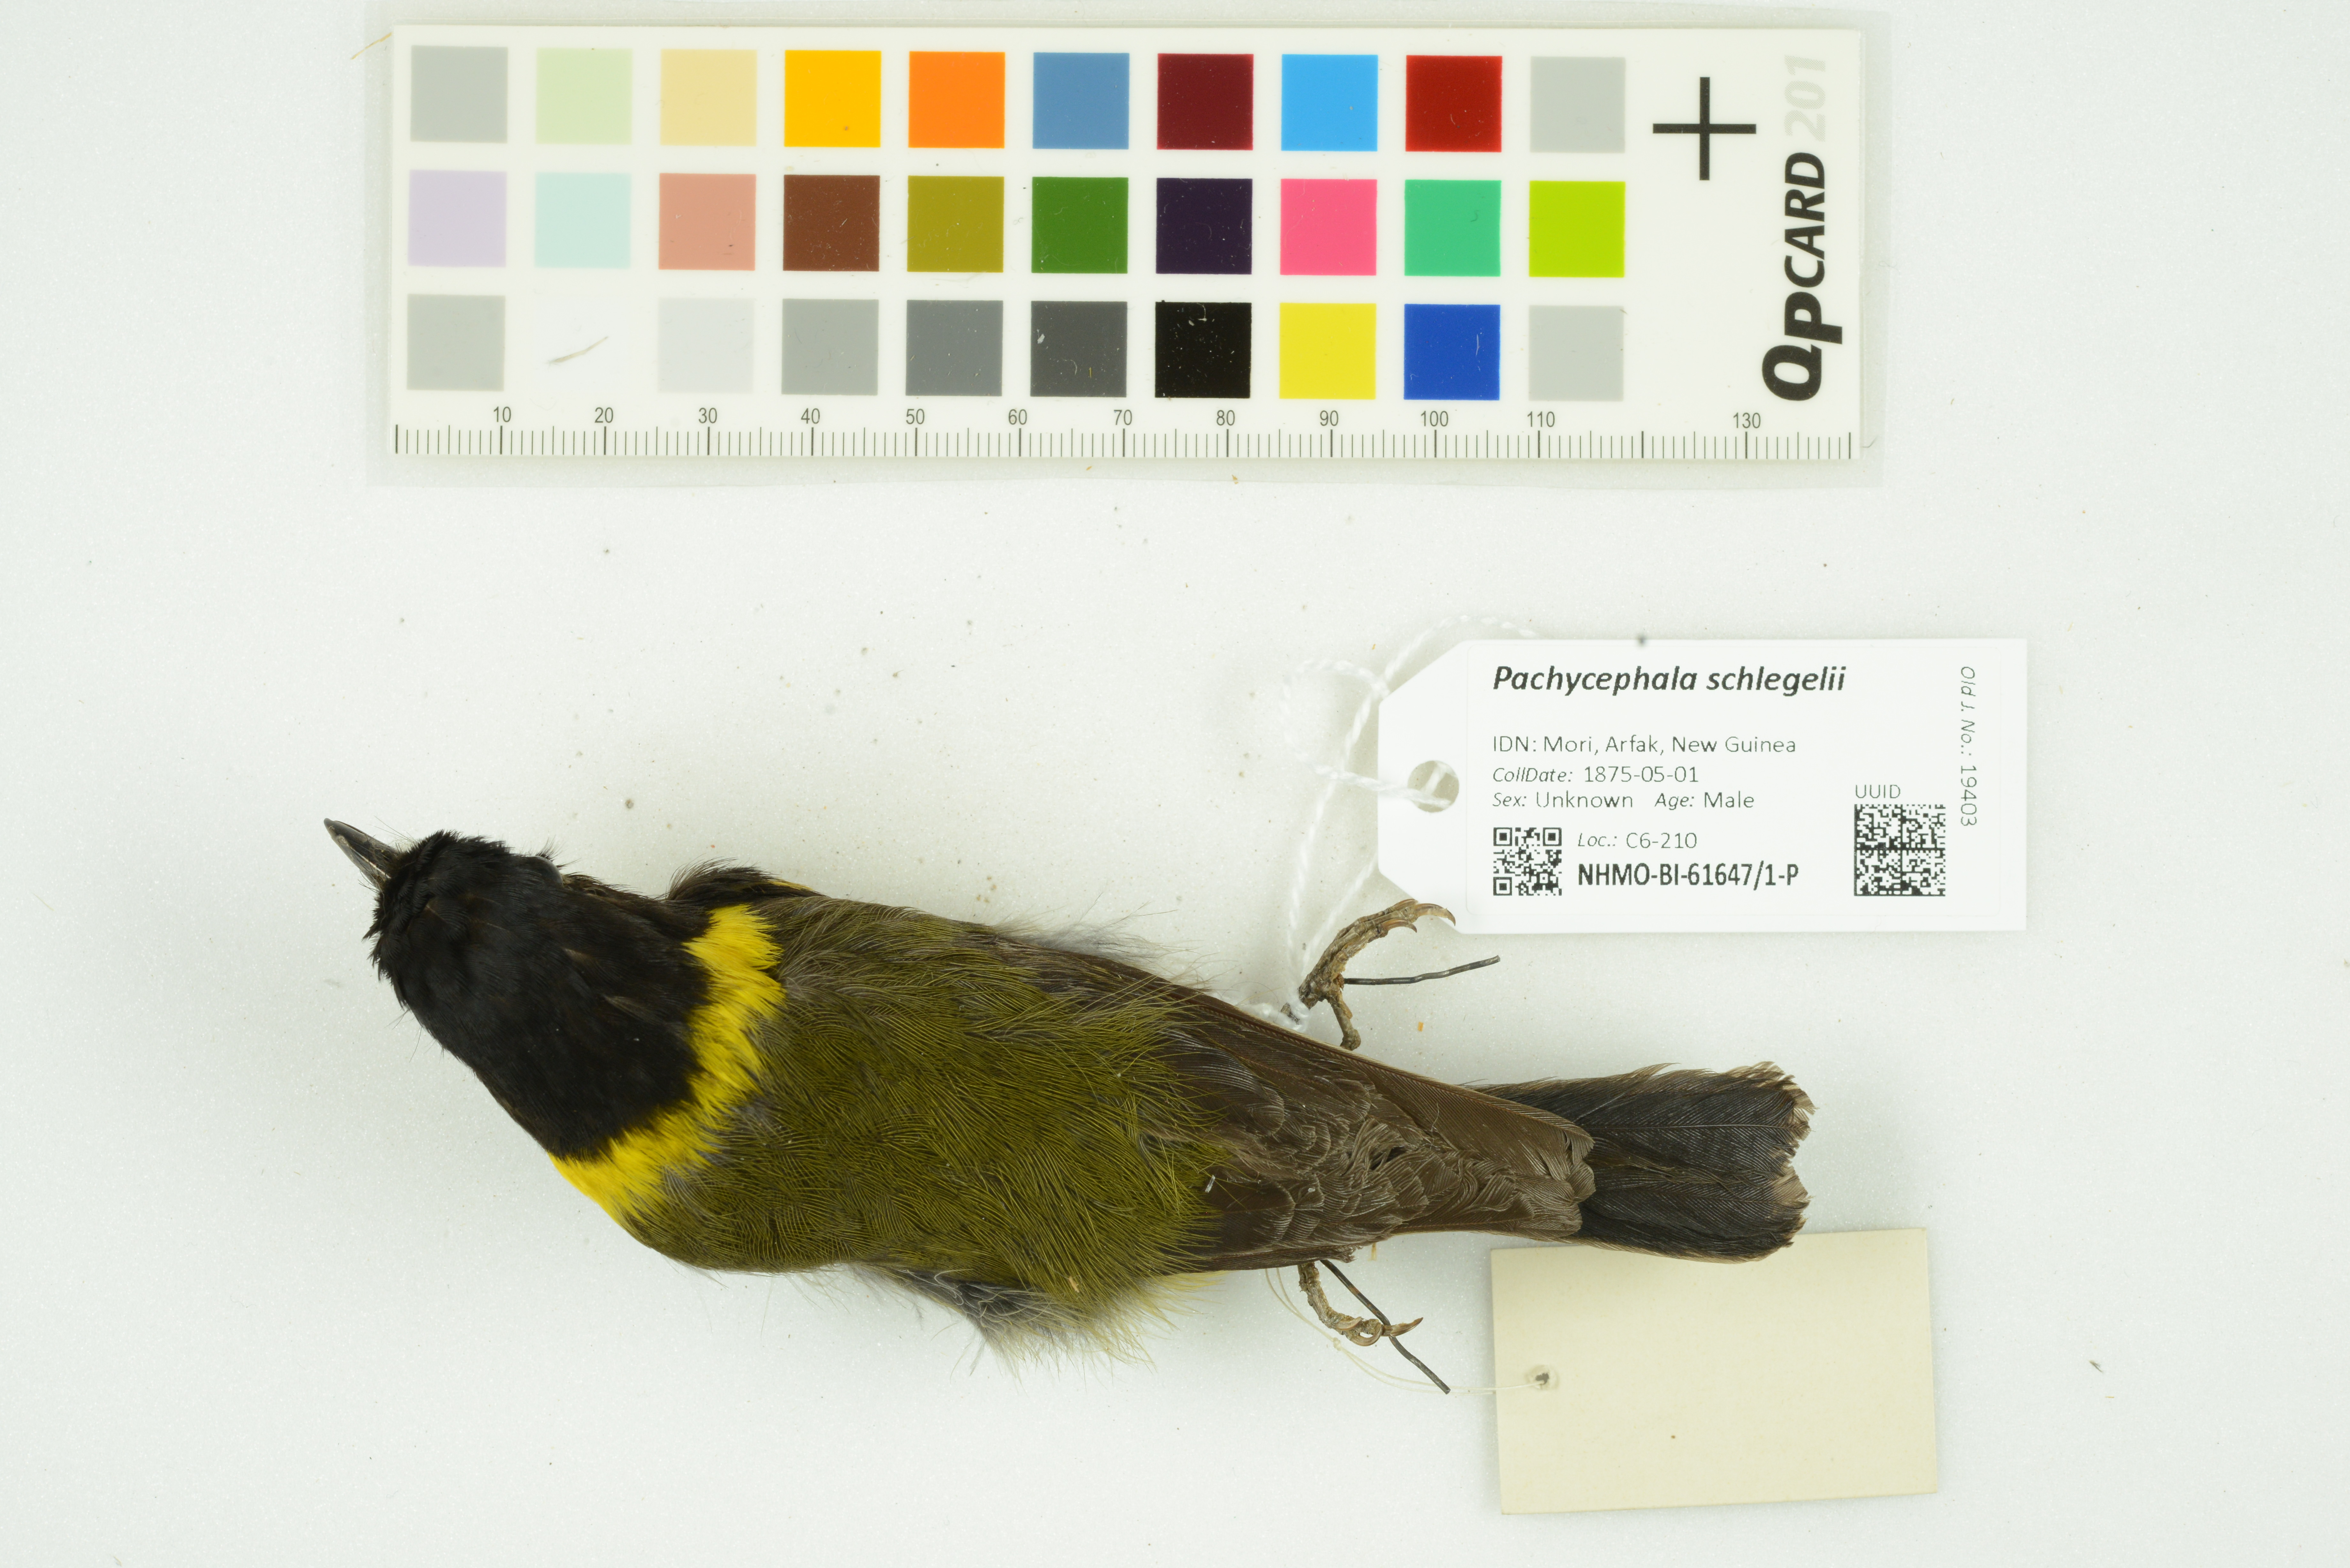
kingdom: Animalia
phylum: Chordata
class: Aves
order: Passeriformes
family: Pachycephalidae
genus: Pachycephala
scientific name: Pachycephala schlegelii
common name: Regent whistler
